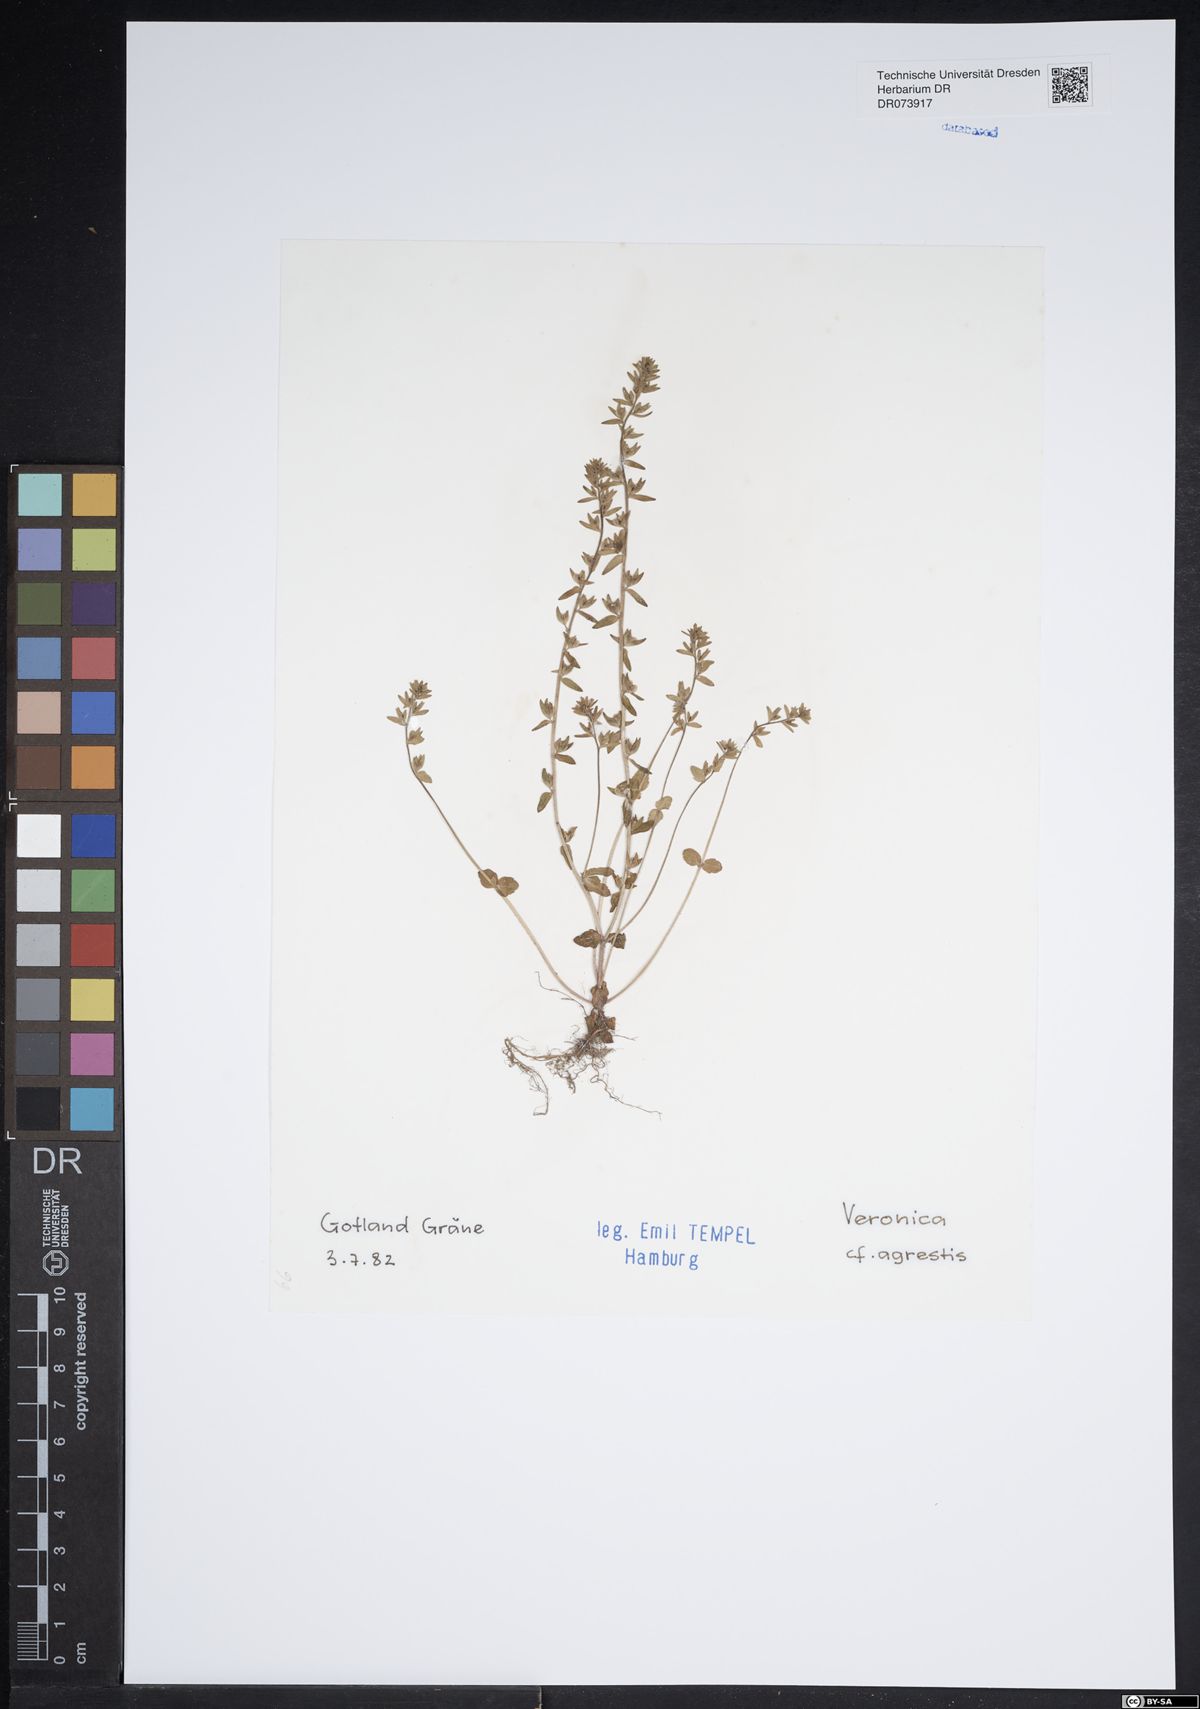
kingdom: Plantae
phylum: Tracheophyta
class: Magnoliopsida
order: Lamiales
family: Plantaginaceae
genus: Veronica
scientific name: Veronica agrestis
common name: Green field-speedwell
